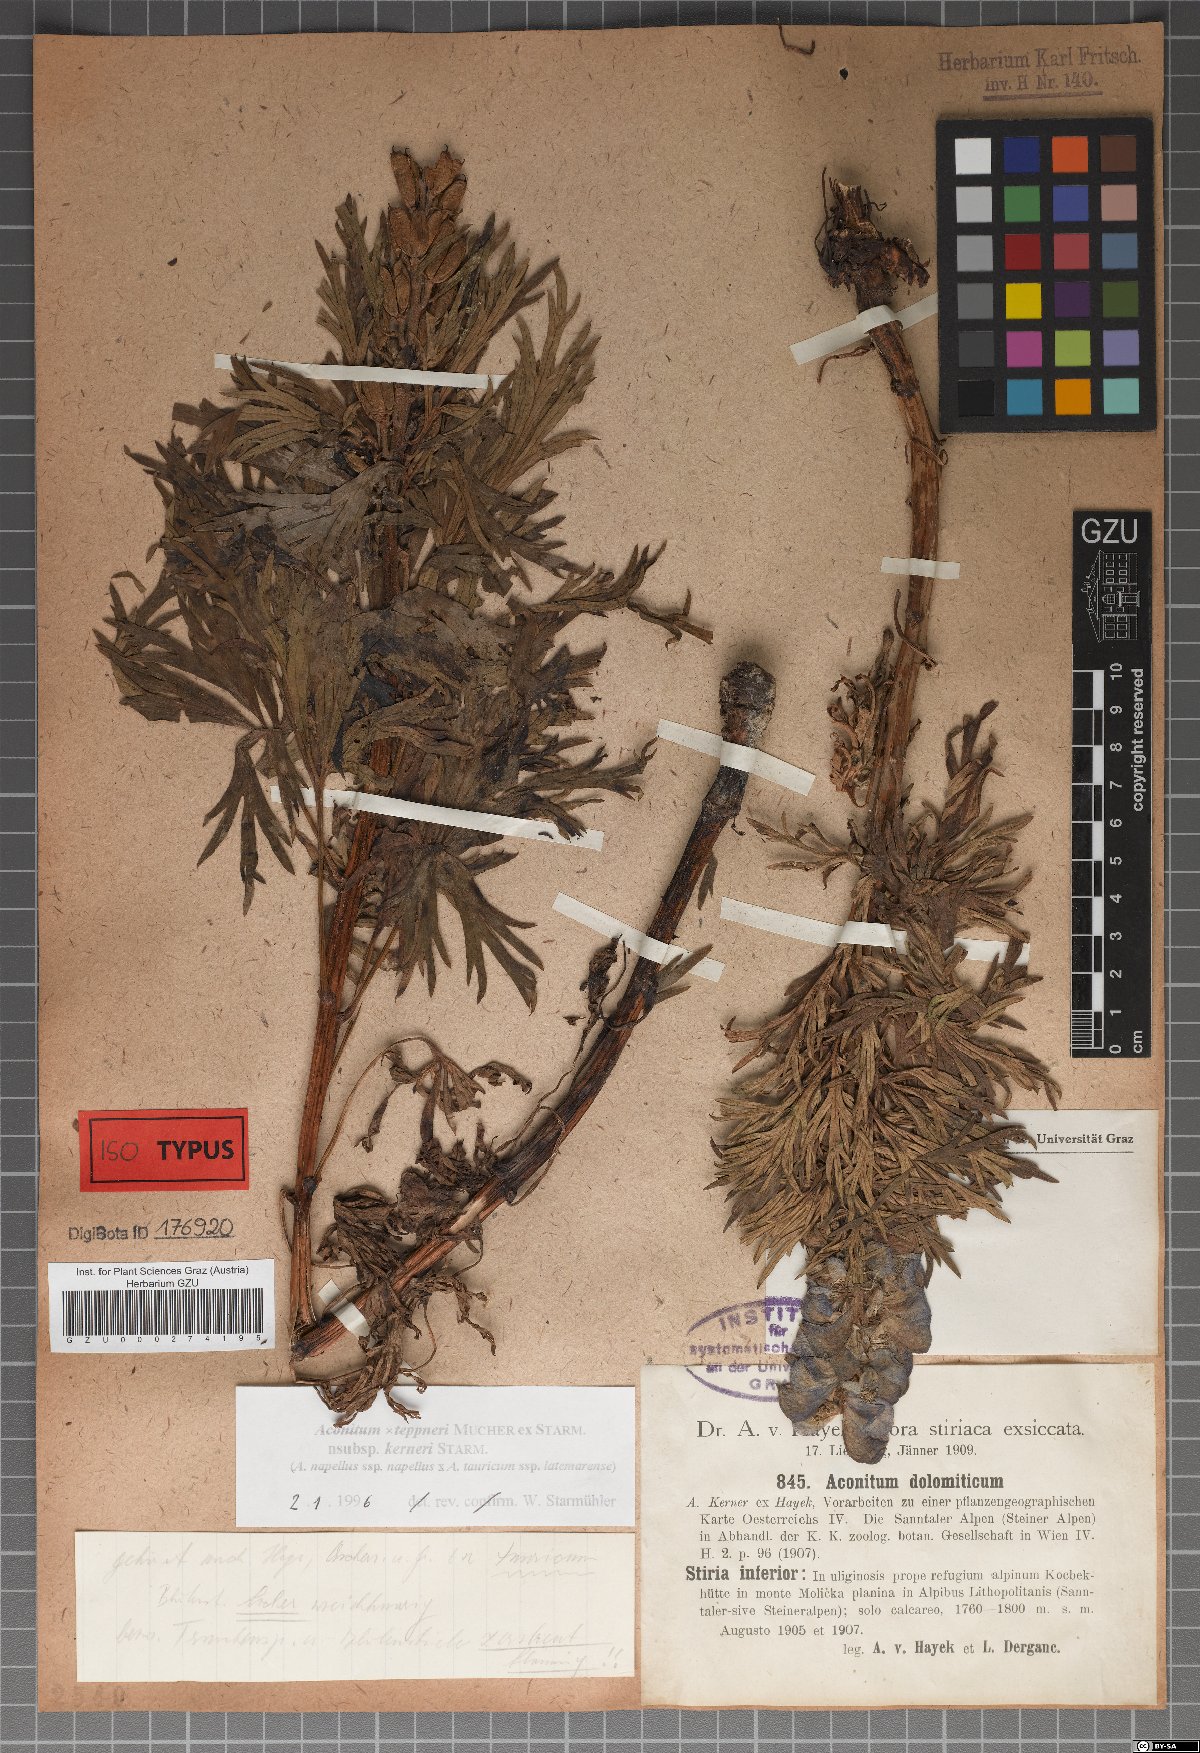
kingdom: Plantae
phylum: Tracheophyta
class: Magnoliopsida
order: Ranunculales
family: Ranunculaceae
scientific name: Ranunculaceae
